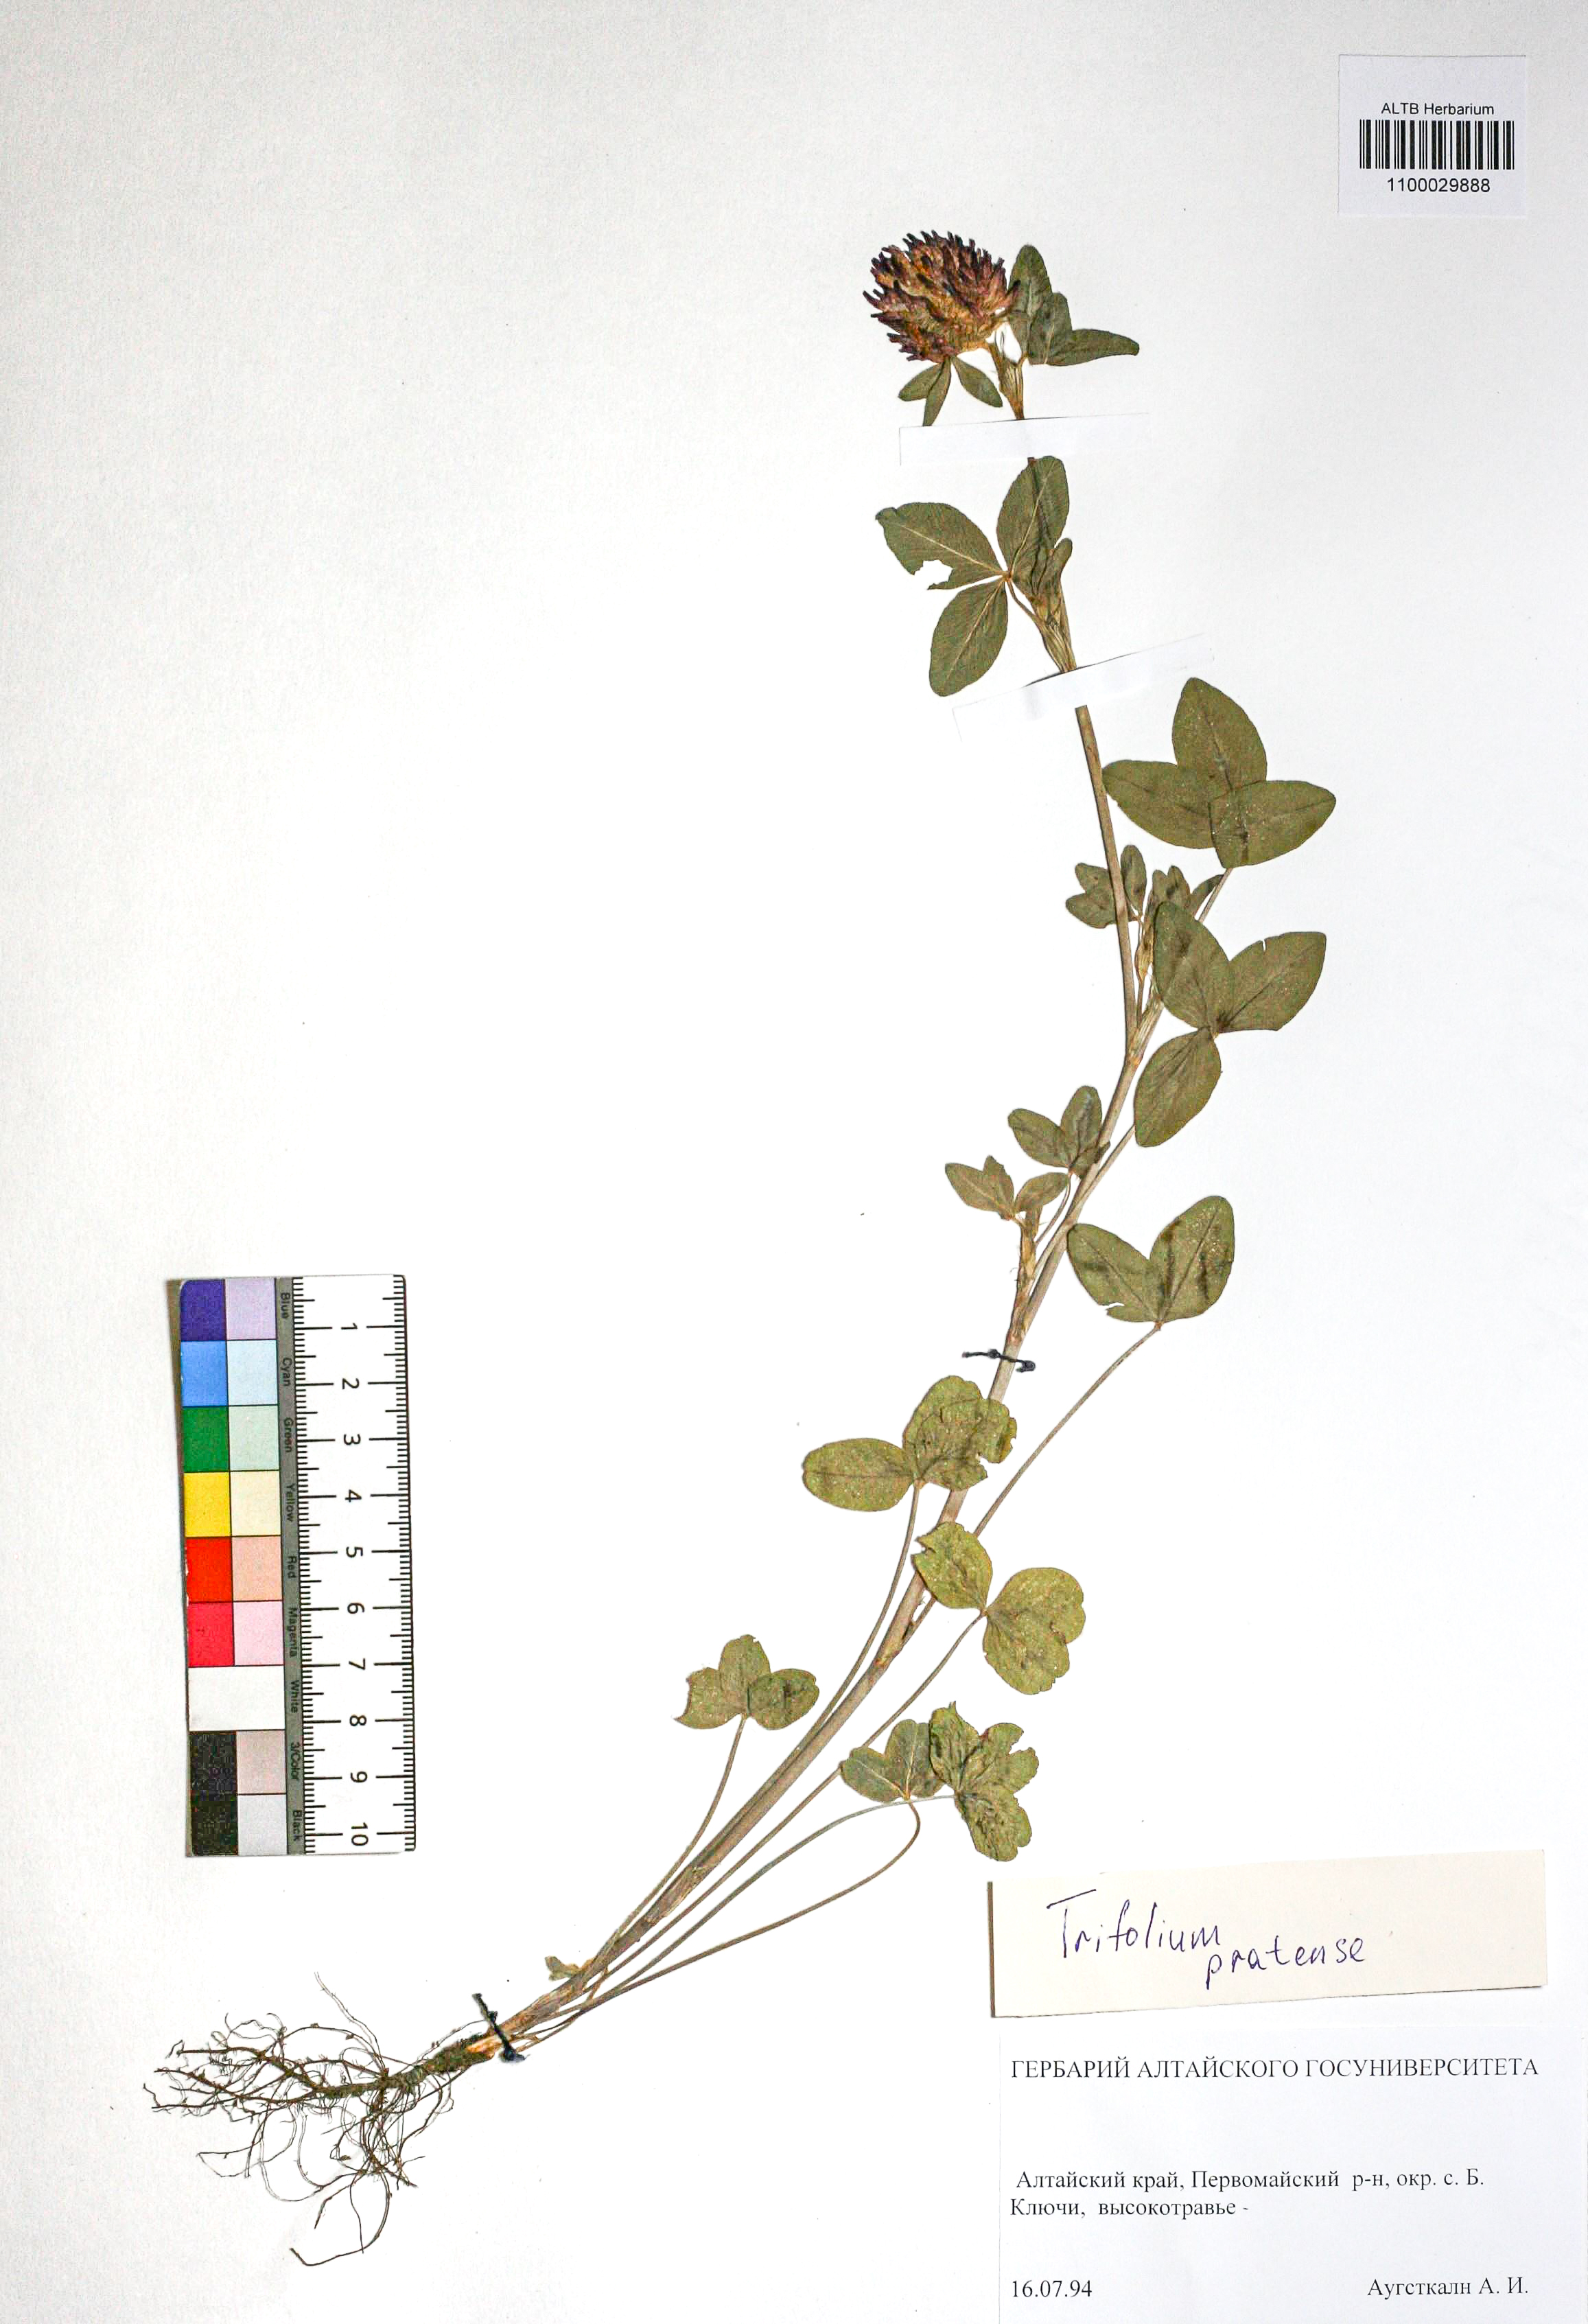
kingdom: Plantae
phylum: Tracheophyta
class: Magnoliopsida
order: Fabales
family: Fabaceae
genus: Trifolium
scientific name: Trifolium pratense
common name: Red clover
